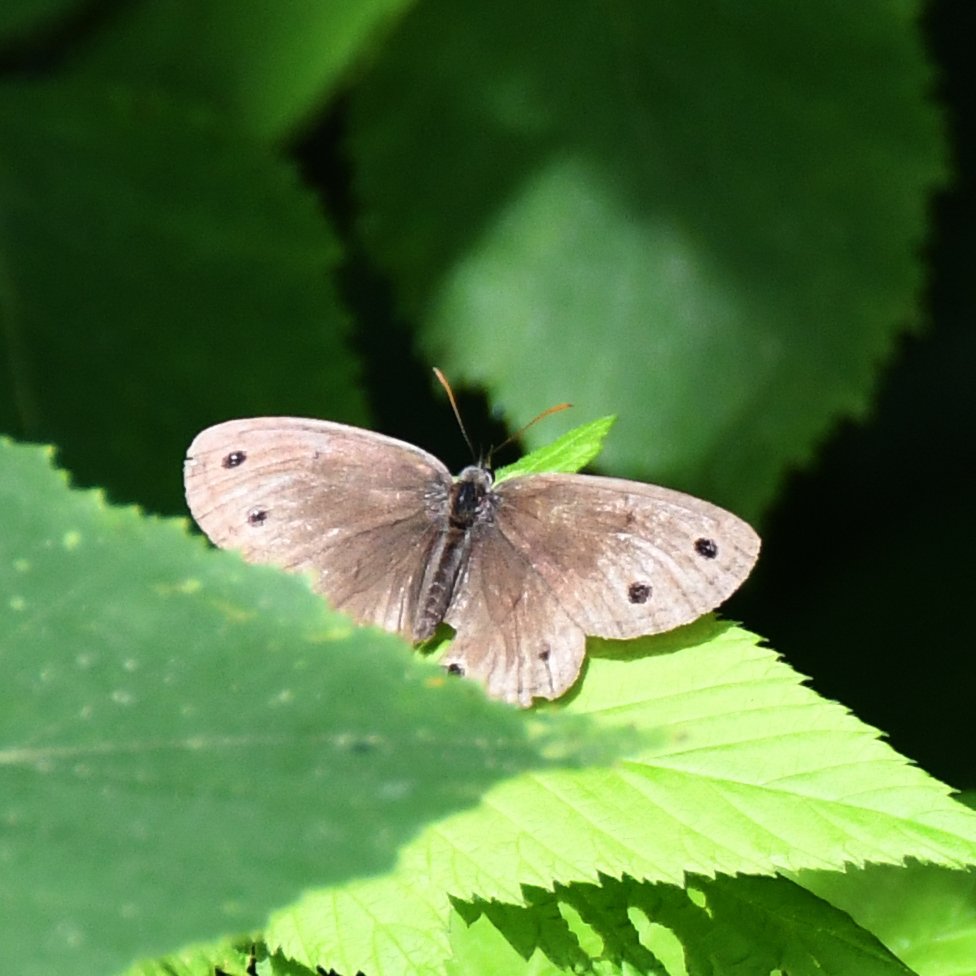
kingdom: Animalia
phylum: Arthropoda
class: Insecta
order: Lepidoptera
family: Nymphalidae
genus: Euptychia
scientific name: Euptychia cymela
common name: Little Wood Satyr
